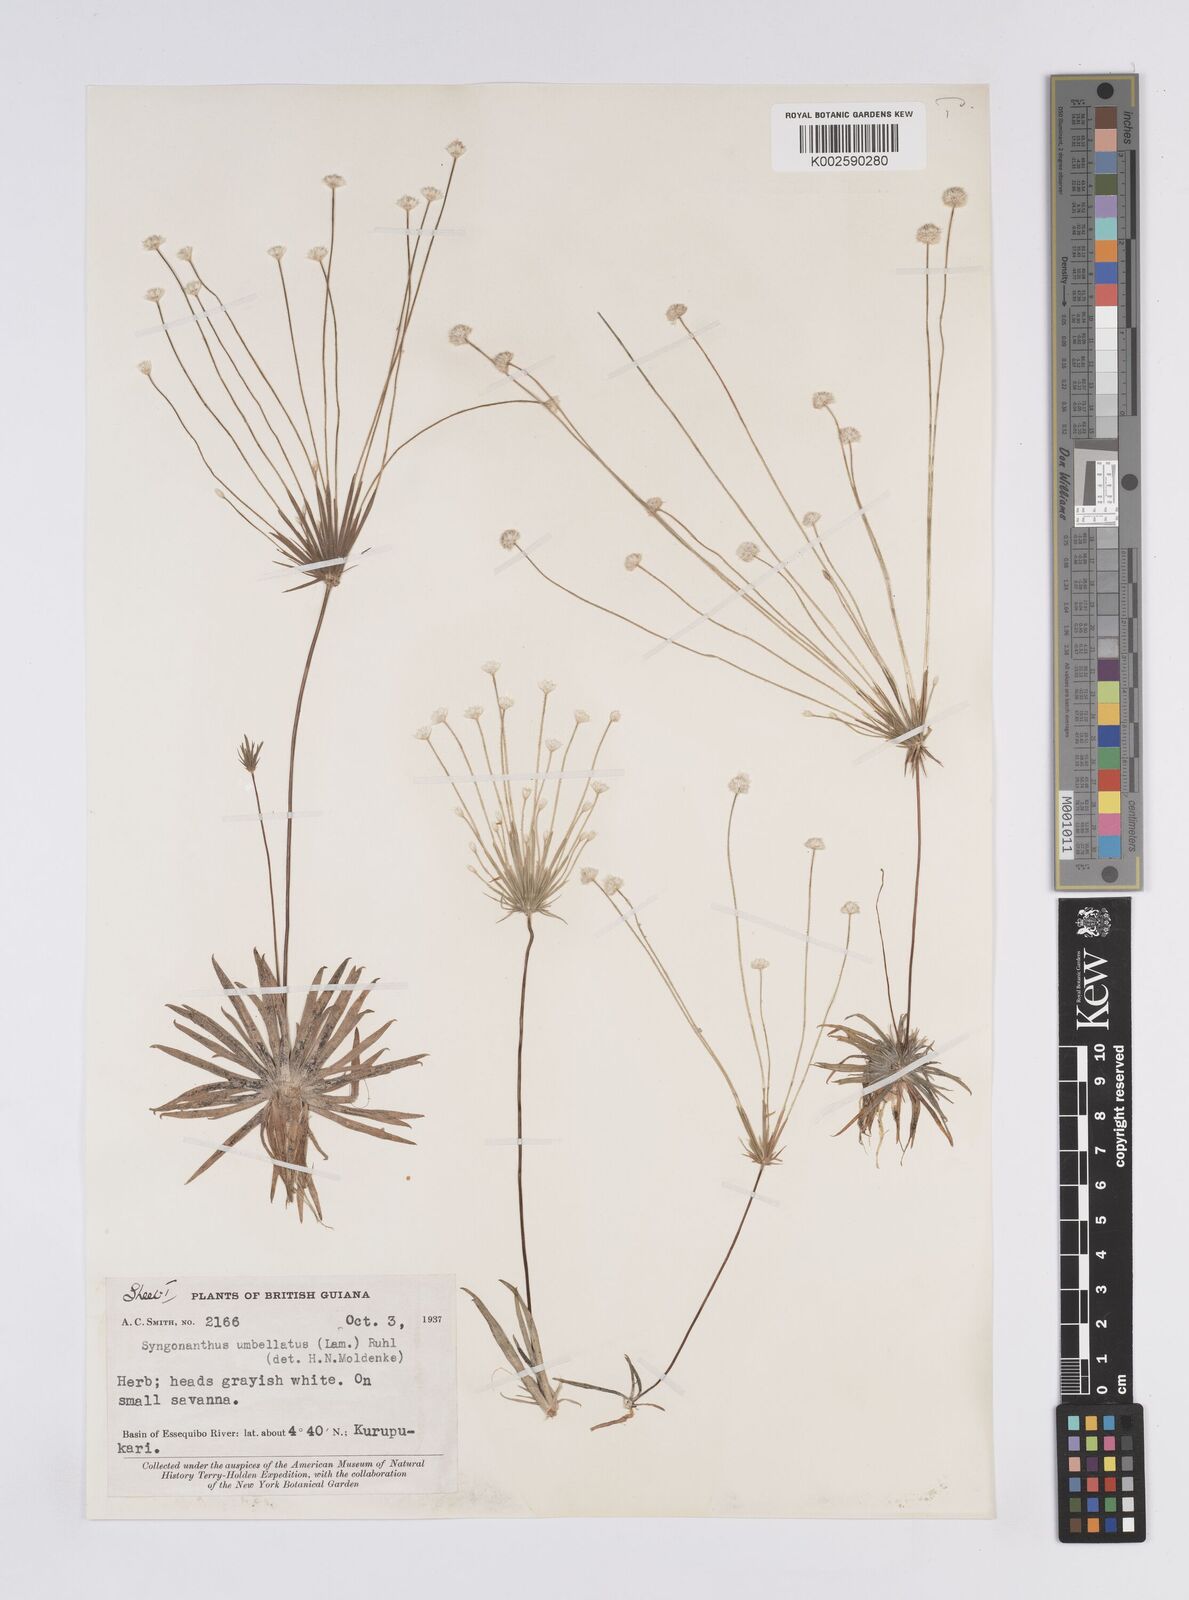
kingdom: Plantae
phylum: Tracheophyta
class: Liliopsida
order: Poales
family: Eriocaulaceae
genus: Syngonanthus
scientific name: Syngonanthus umbellatus
